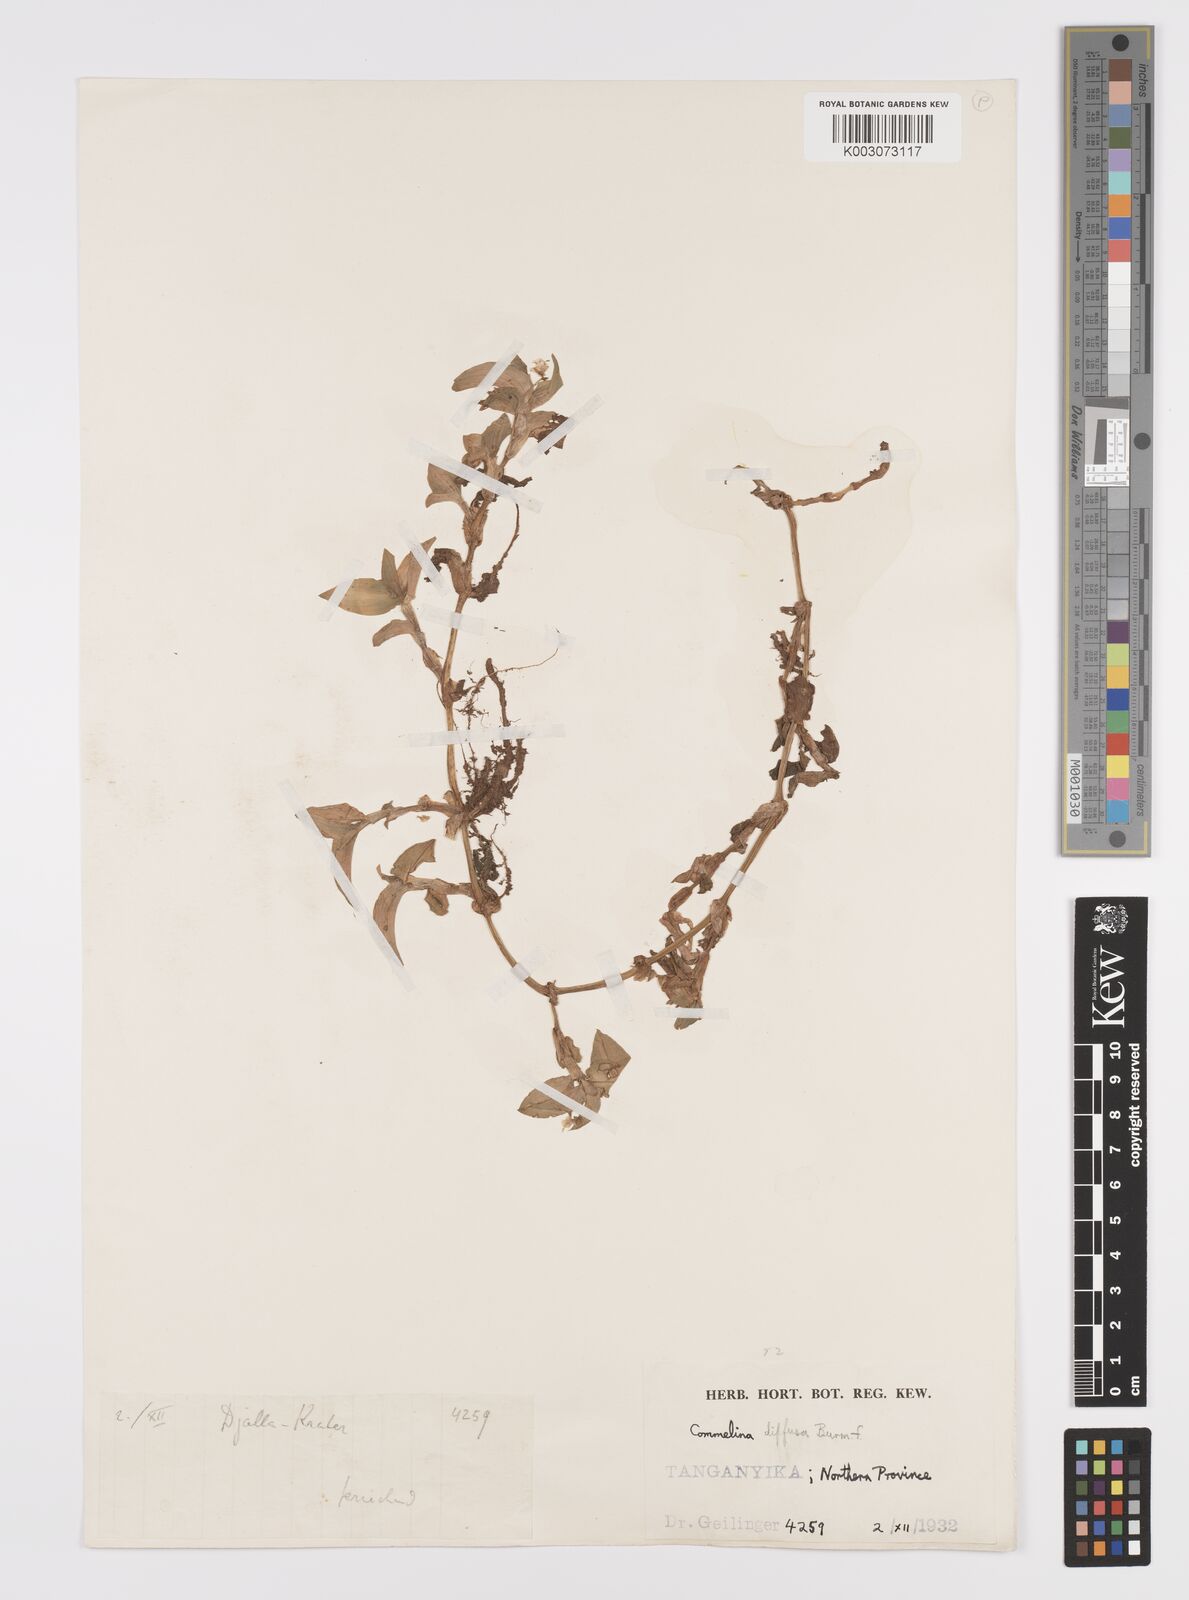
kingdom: Plantae
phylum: Tracheophyta
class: Liliopsida
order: Commelinales
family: Commelinaceae
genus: Commelina
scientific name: Commelina diffusa
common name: Climbing dayflower
